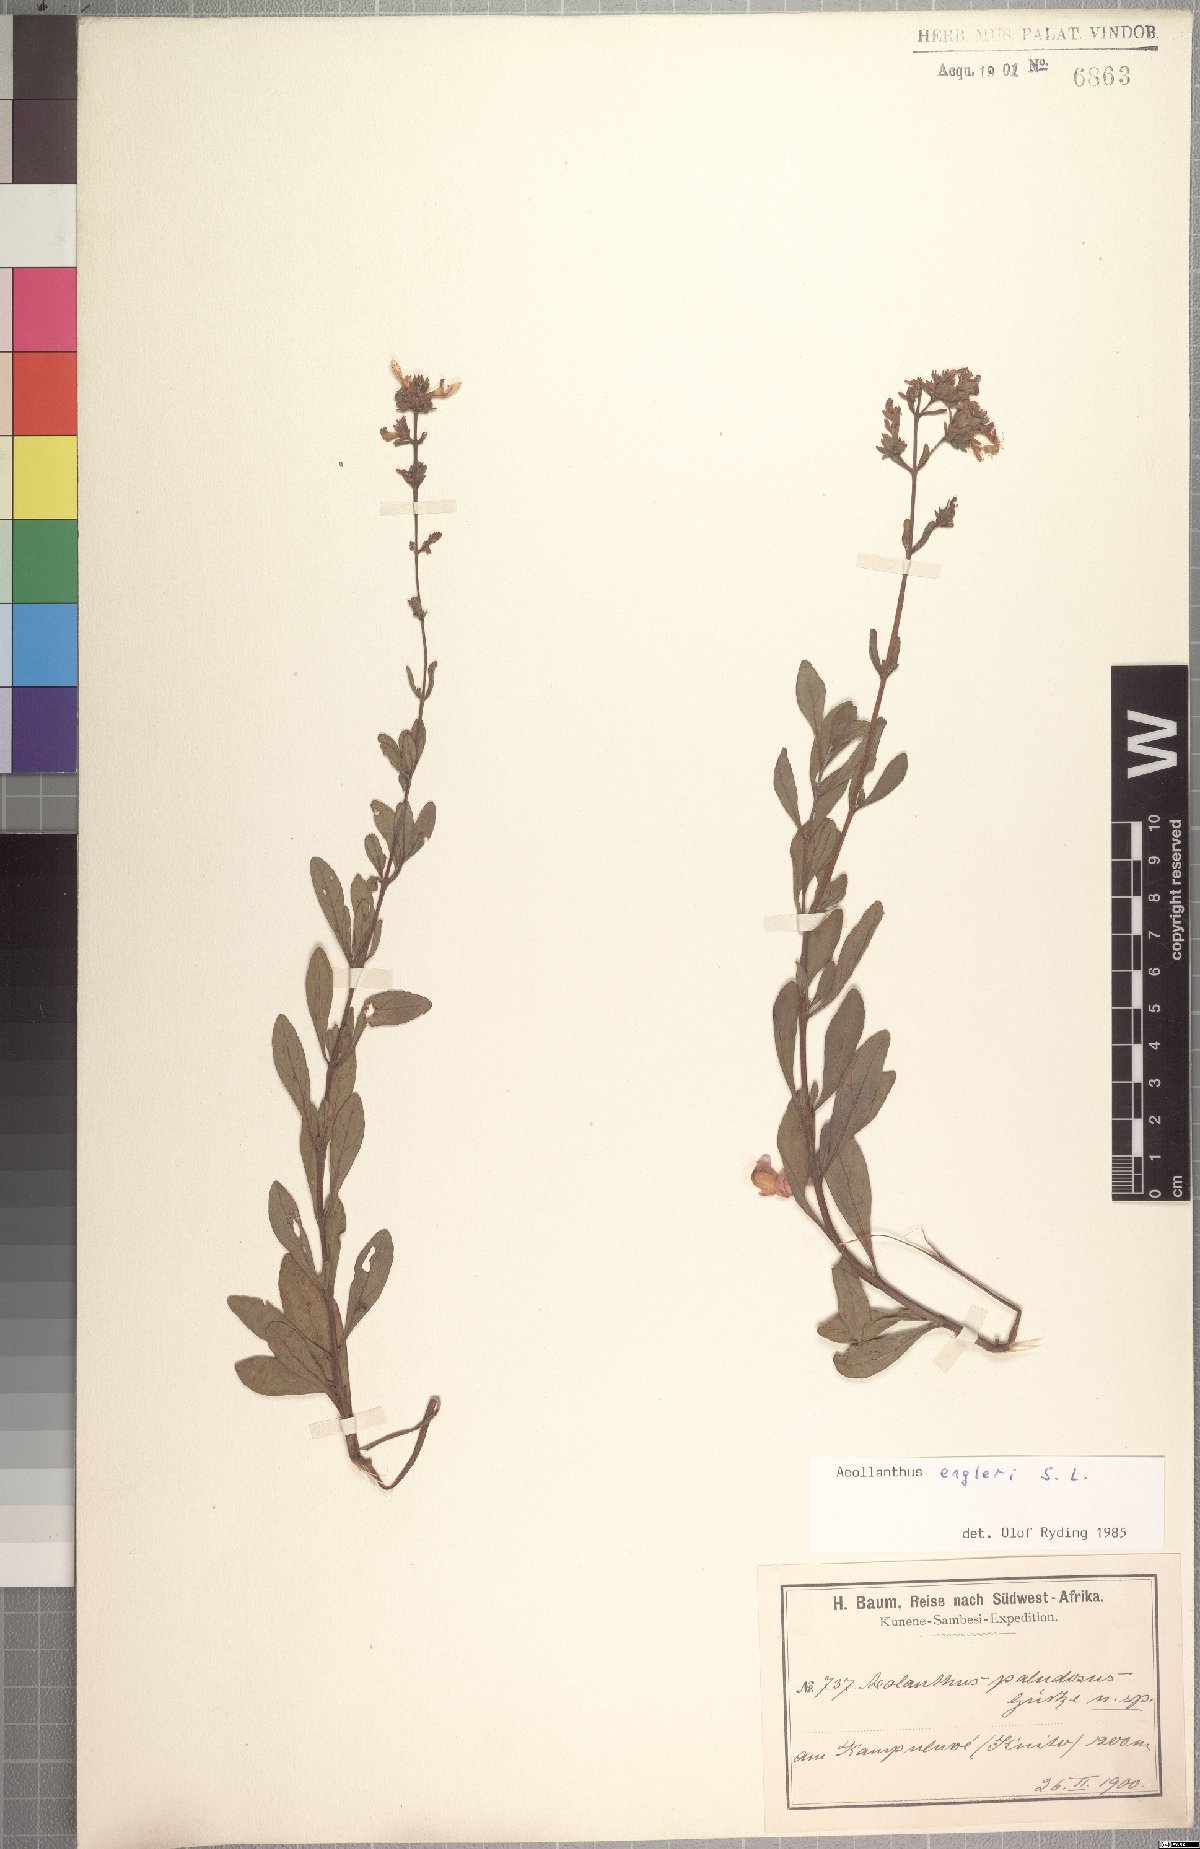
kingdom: Plantae
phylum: Tracheophyta
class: Magnoliopsida
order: Lamiales
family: Lamiaceae
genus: Aeollanthus
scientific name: Aeollanthus engleri
